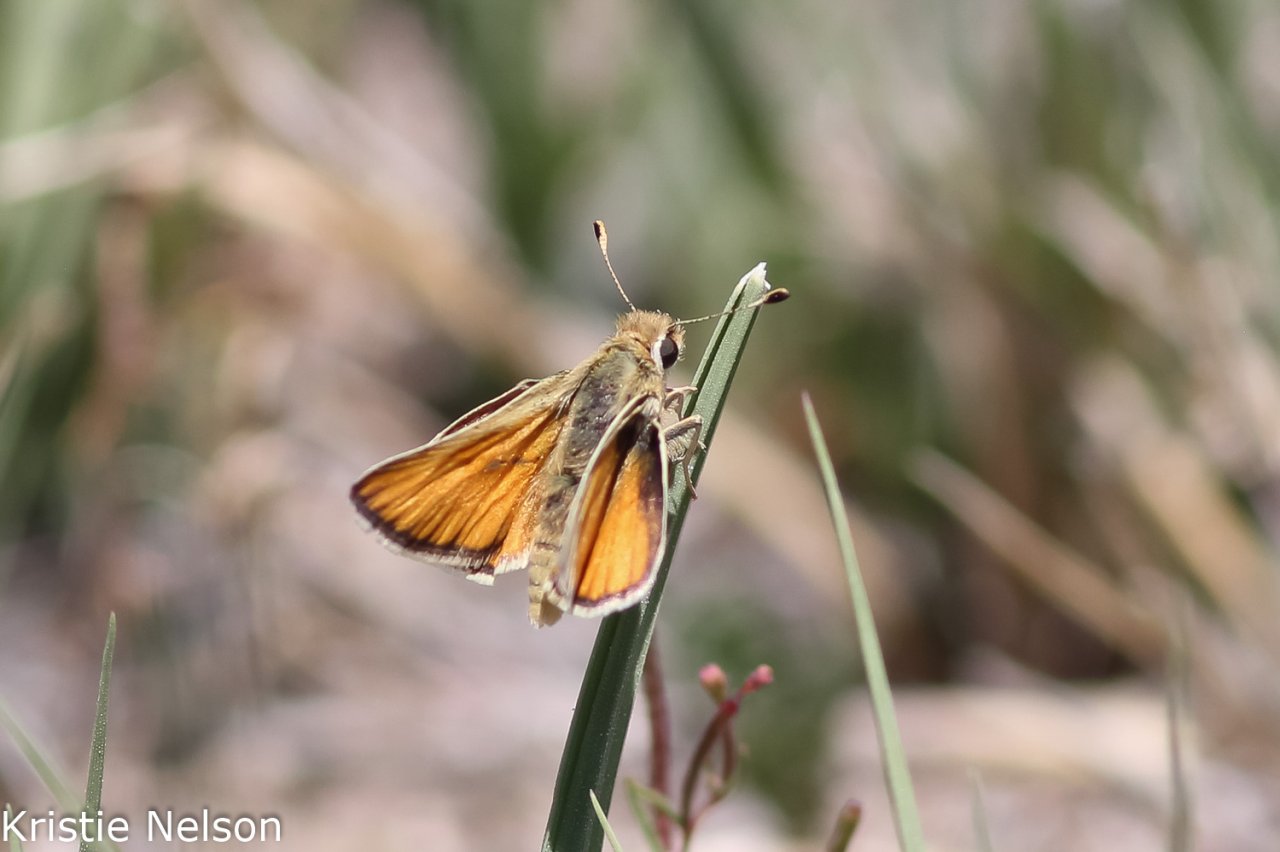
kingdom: Animalia
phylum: Arthropoda
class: Insecta
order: Lepidoptera
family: Hesperiidae
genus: Pseudocopaeodes
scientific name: Pseudocopaeodes eunus
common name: Alkali Skipper
